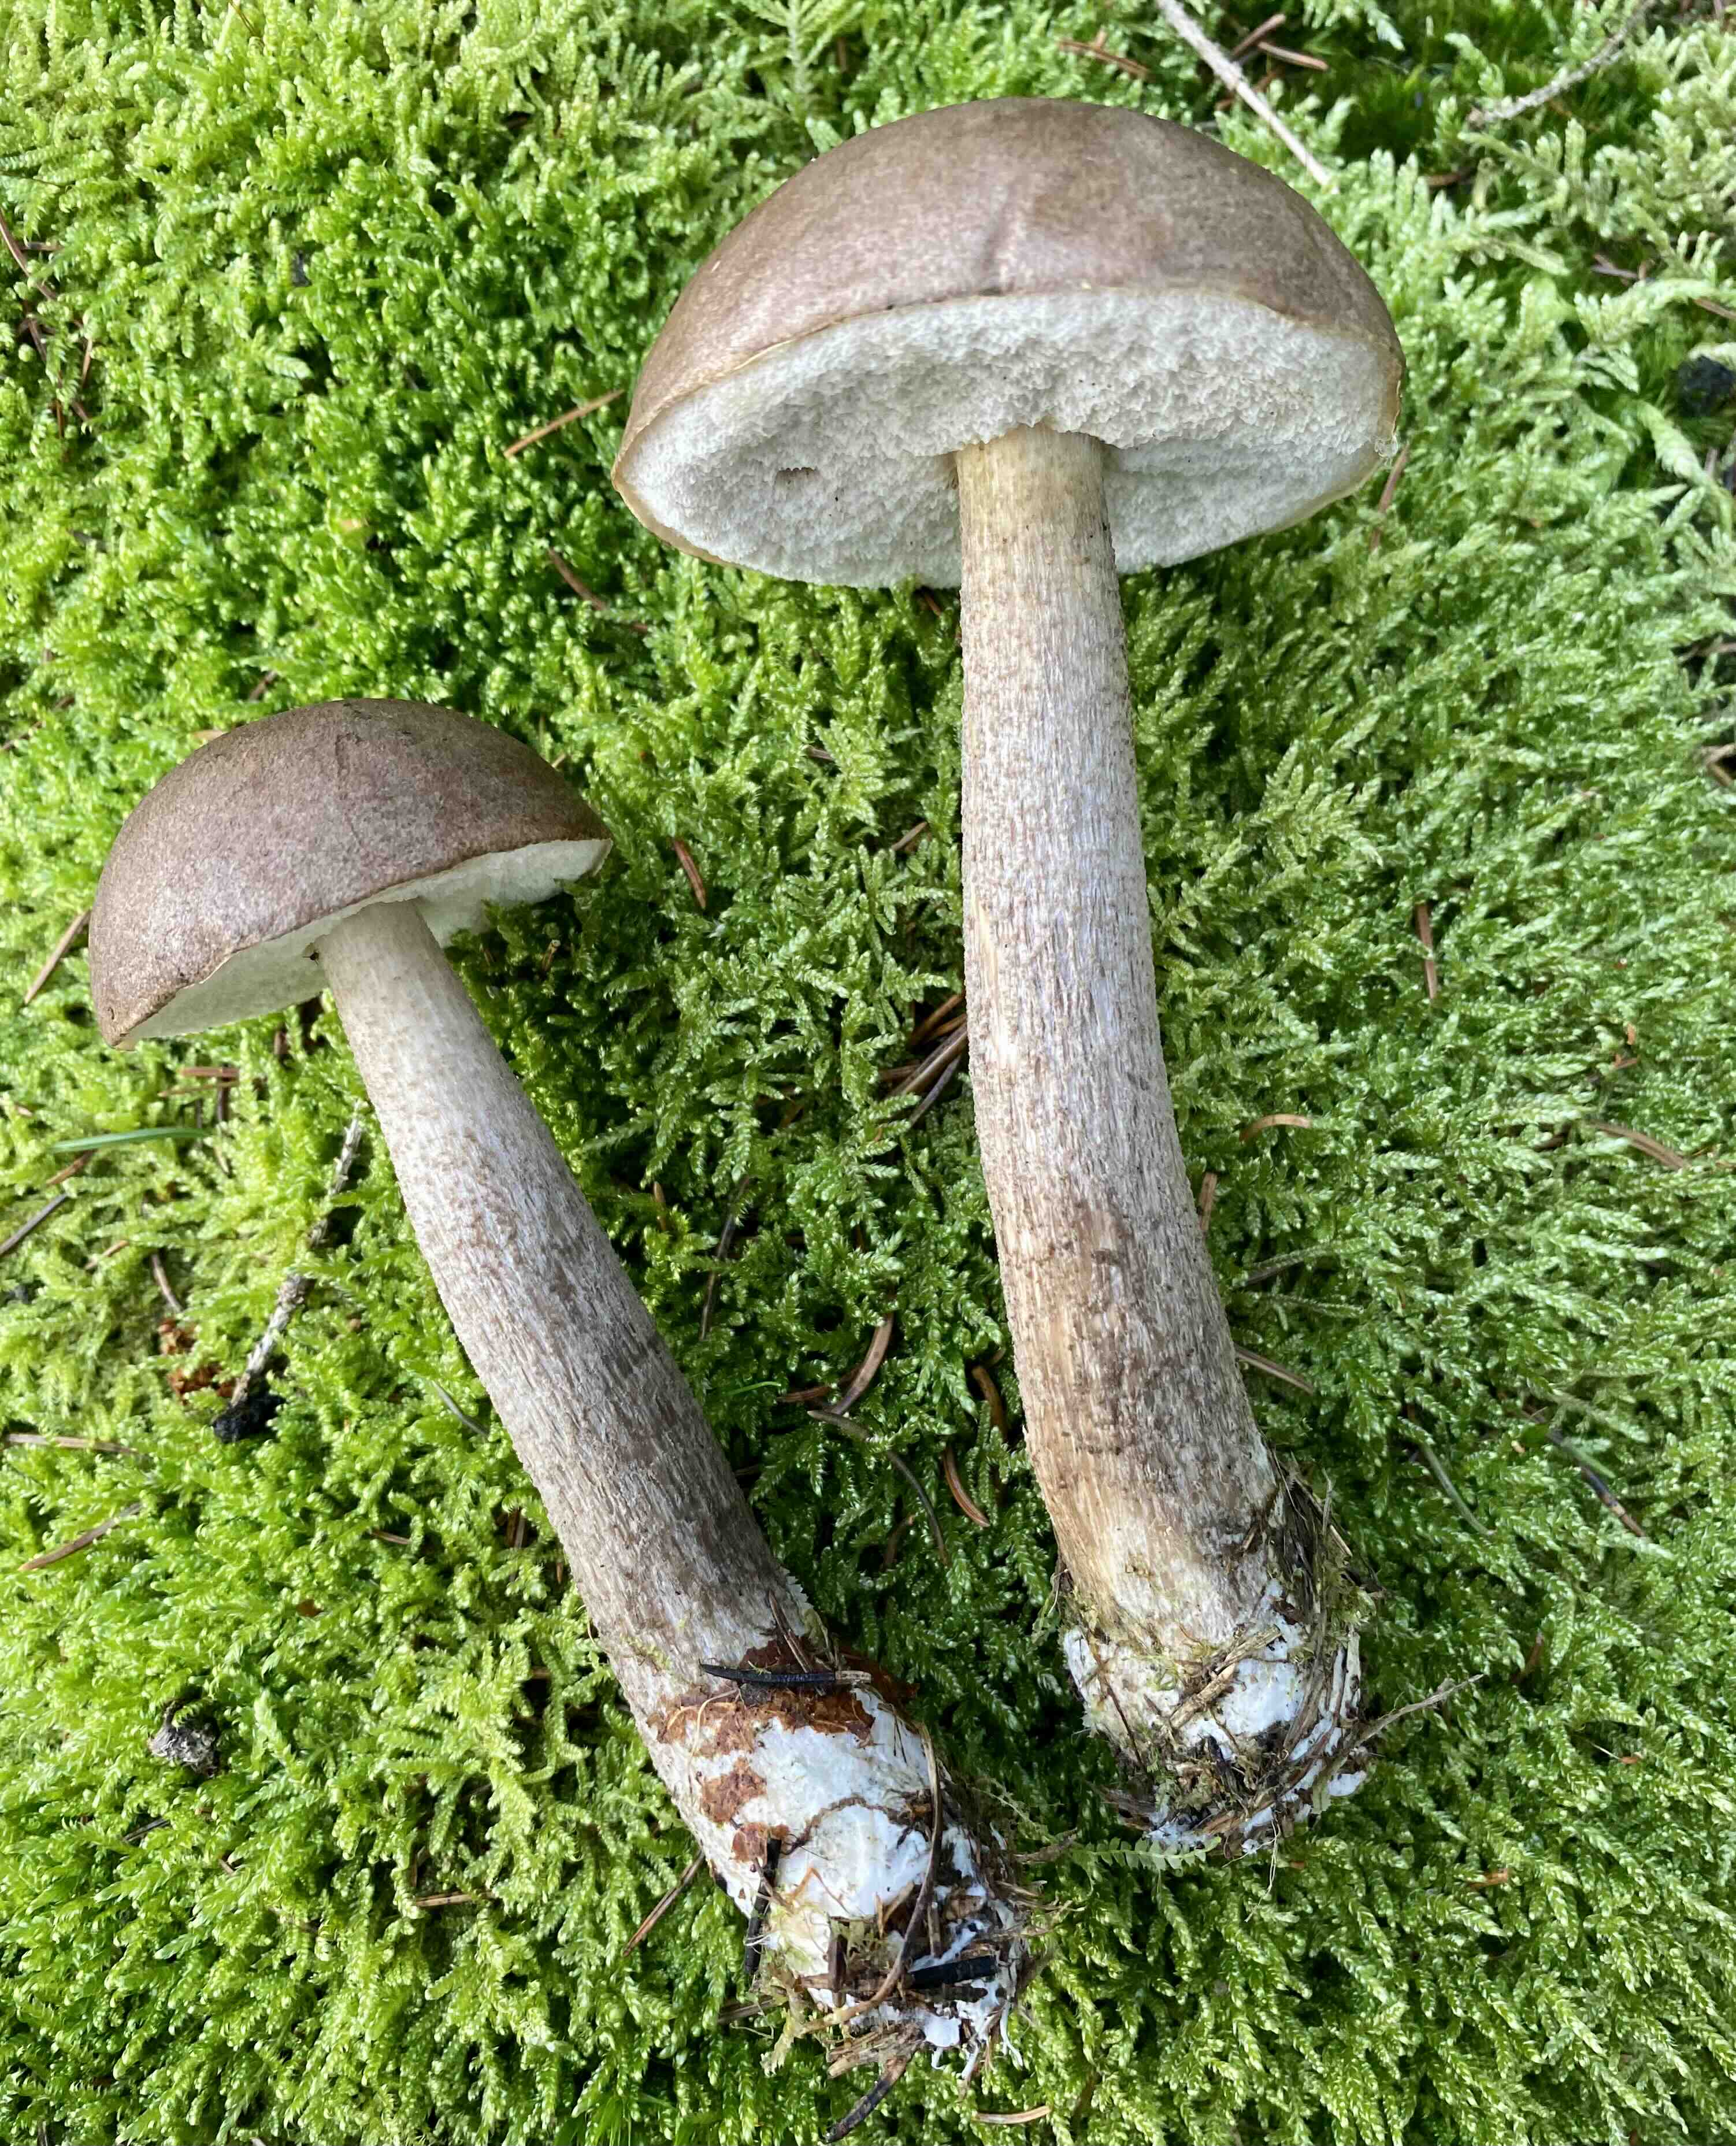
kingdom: Fungi
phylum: Basidiomycota
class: Agaricomycetes
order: Boletales
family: Boletaceae
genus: Leccinum
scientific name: Leccinum
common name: skælrørhat
